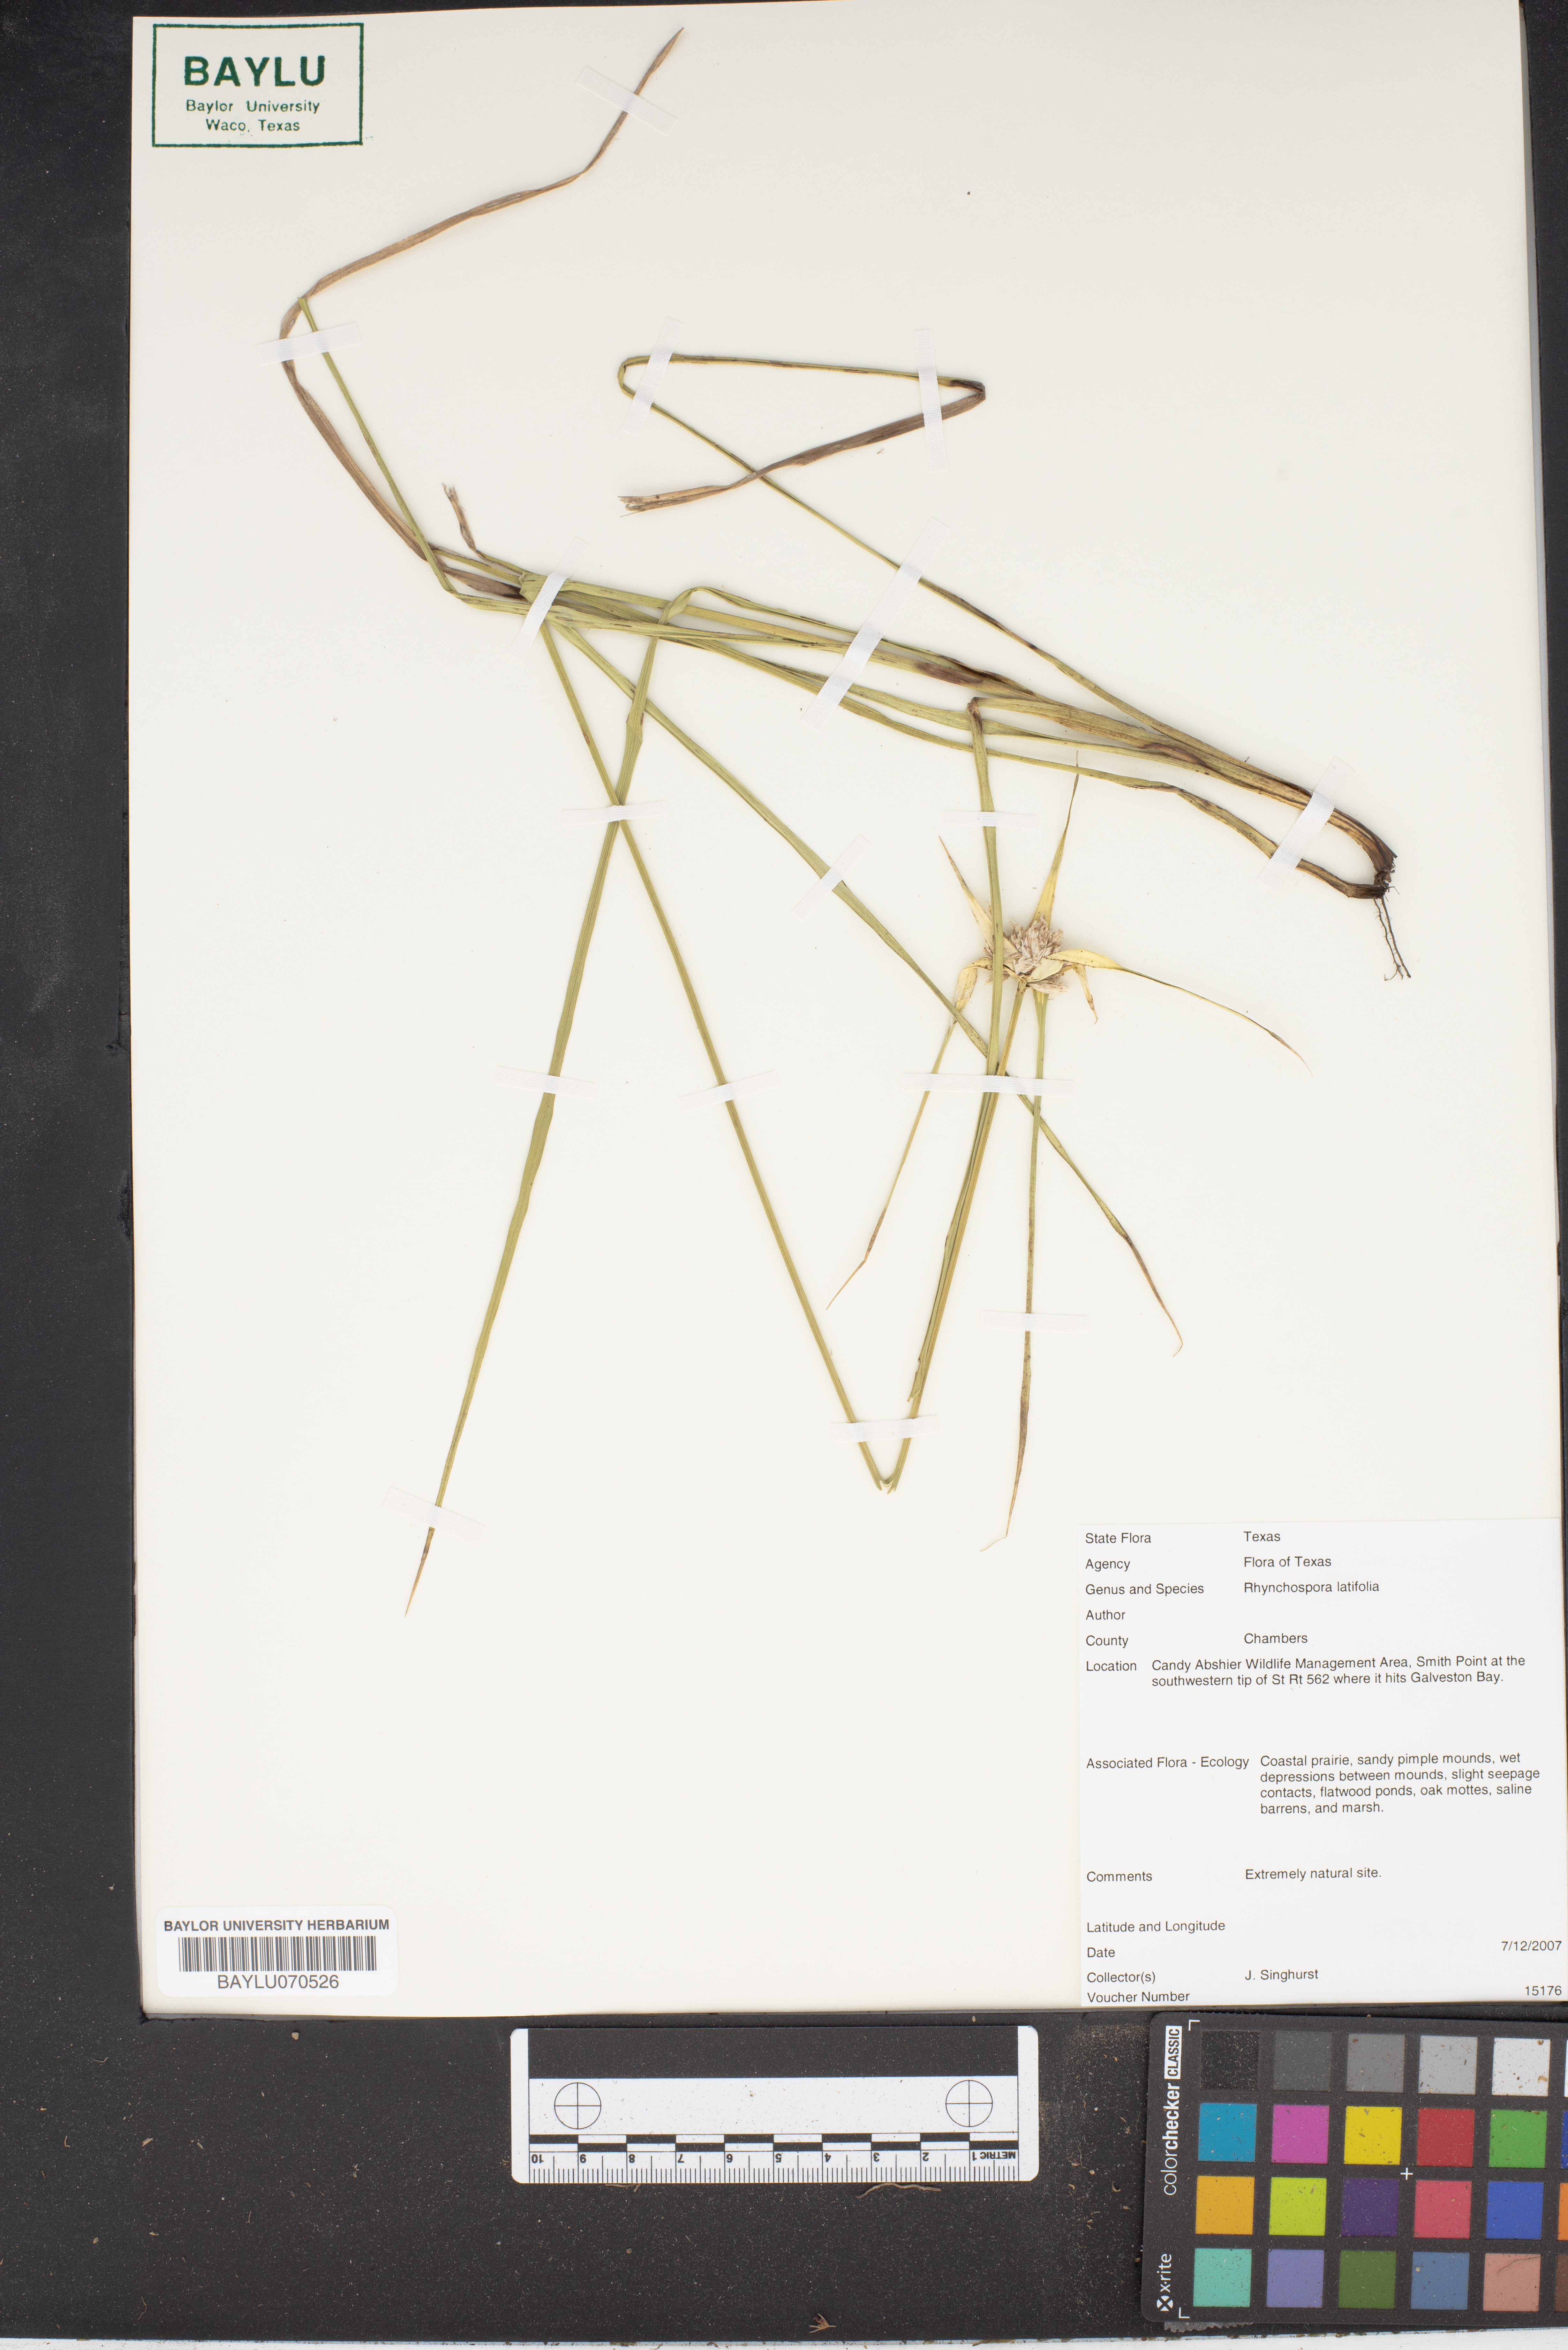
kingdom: Plantae
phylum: Tracheophyta
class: Liliopsida
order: Poales
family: Cyperaceae
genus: Rhynchospora
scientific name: Rhynchospora latifolia
